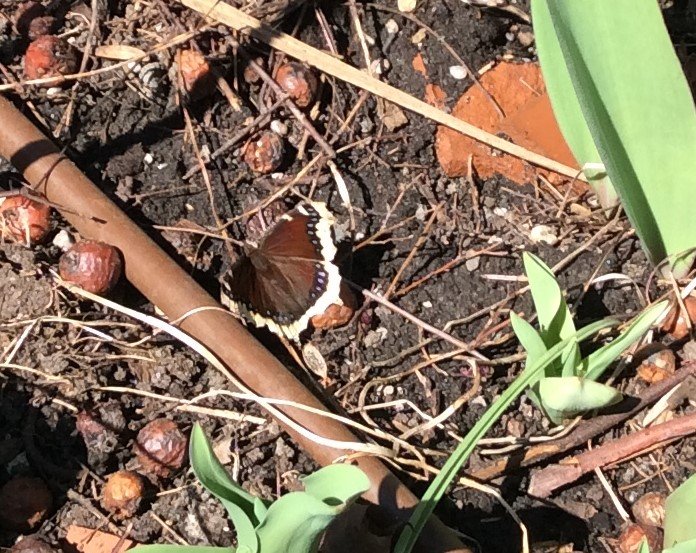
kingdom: Animalia
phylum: Arthropoda
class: Insecta
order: Lepidoptera
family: Nymphalidae
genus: Nymphalis
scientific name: Nymphalis antiopa
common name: Mourning Cloak
